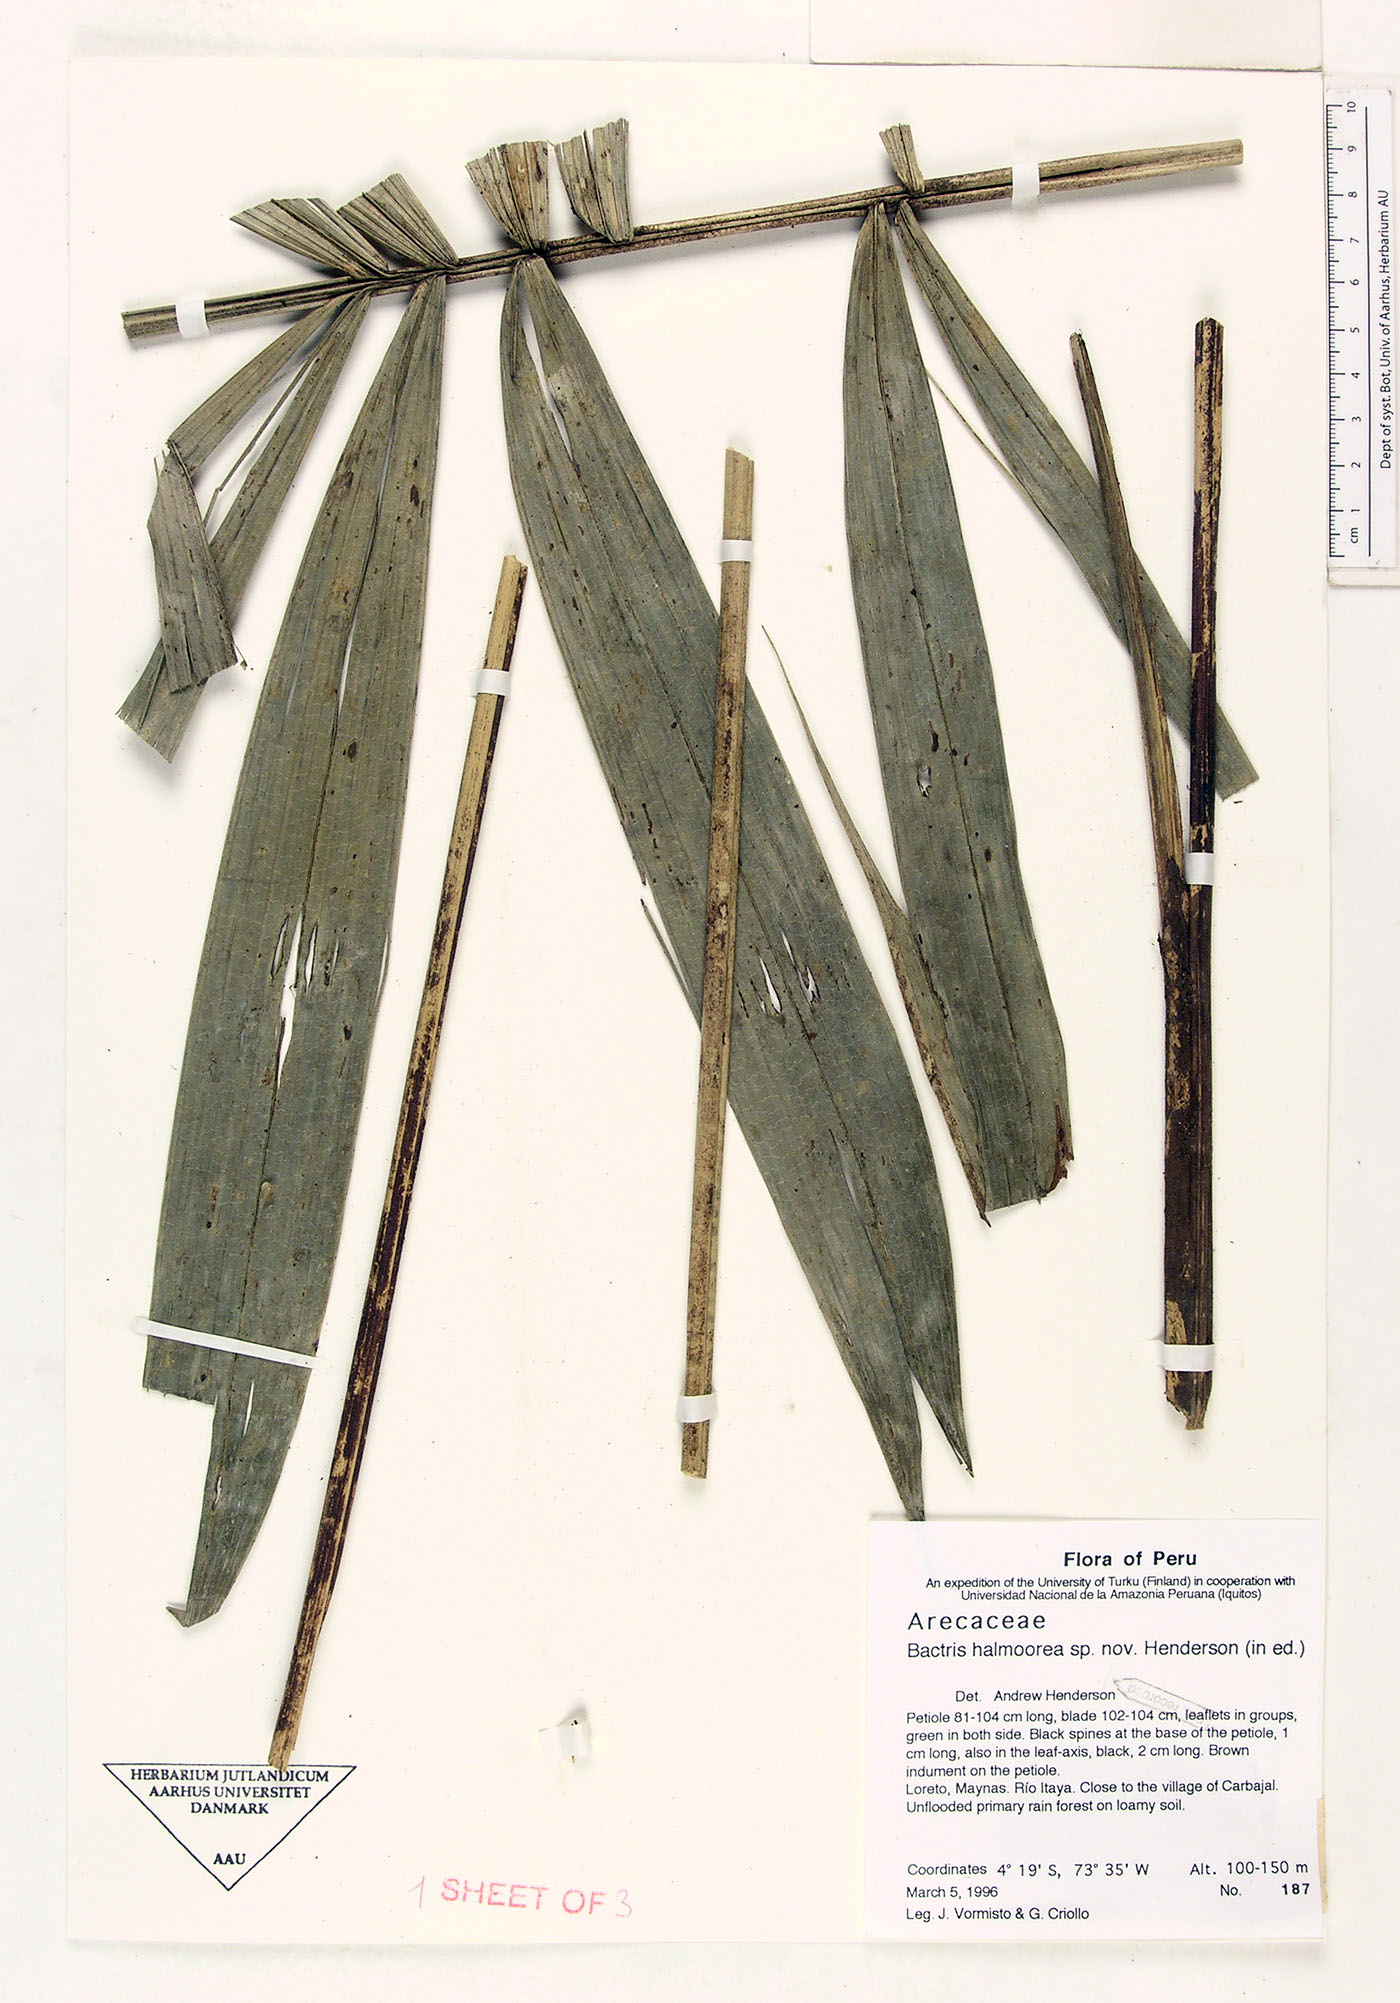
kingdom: Plantae
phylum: Tracheophyta
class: Liliopsida
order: Arecales
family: Arecaceae
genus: Bactris
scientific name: Bactris halmoorei
